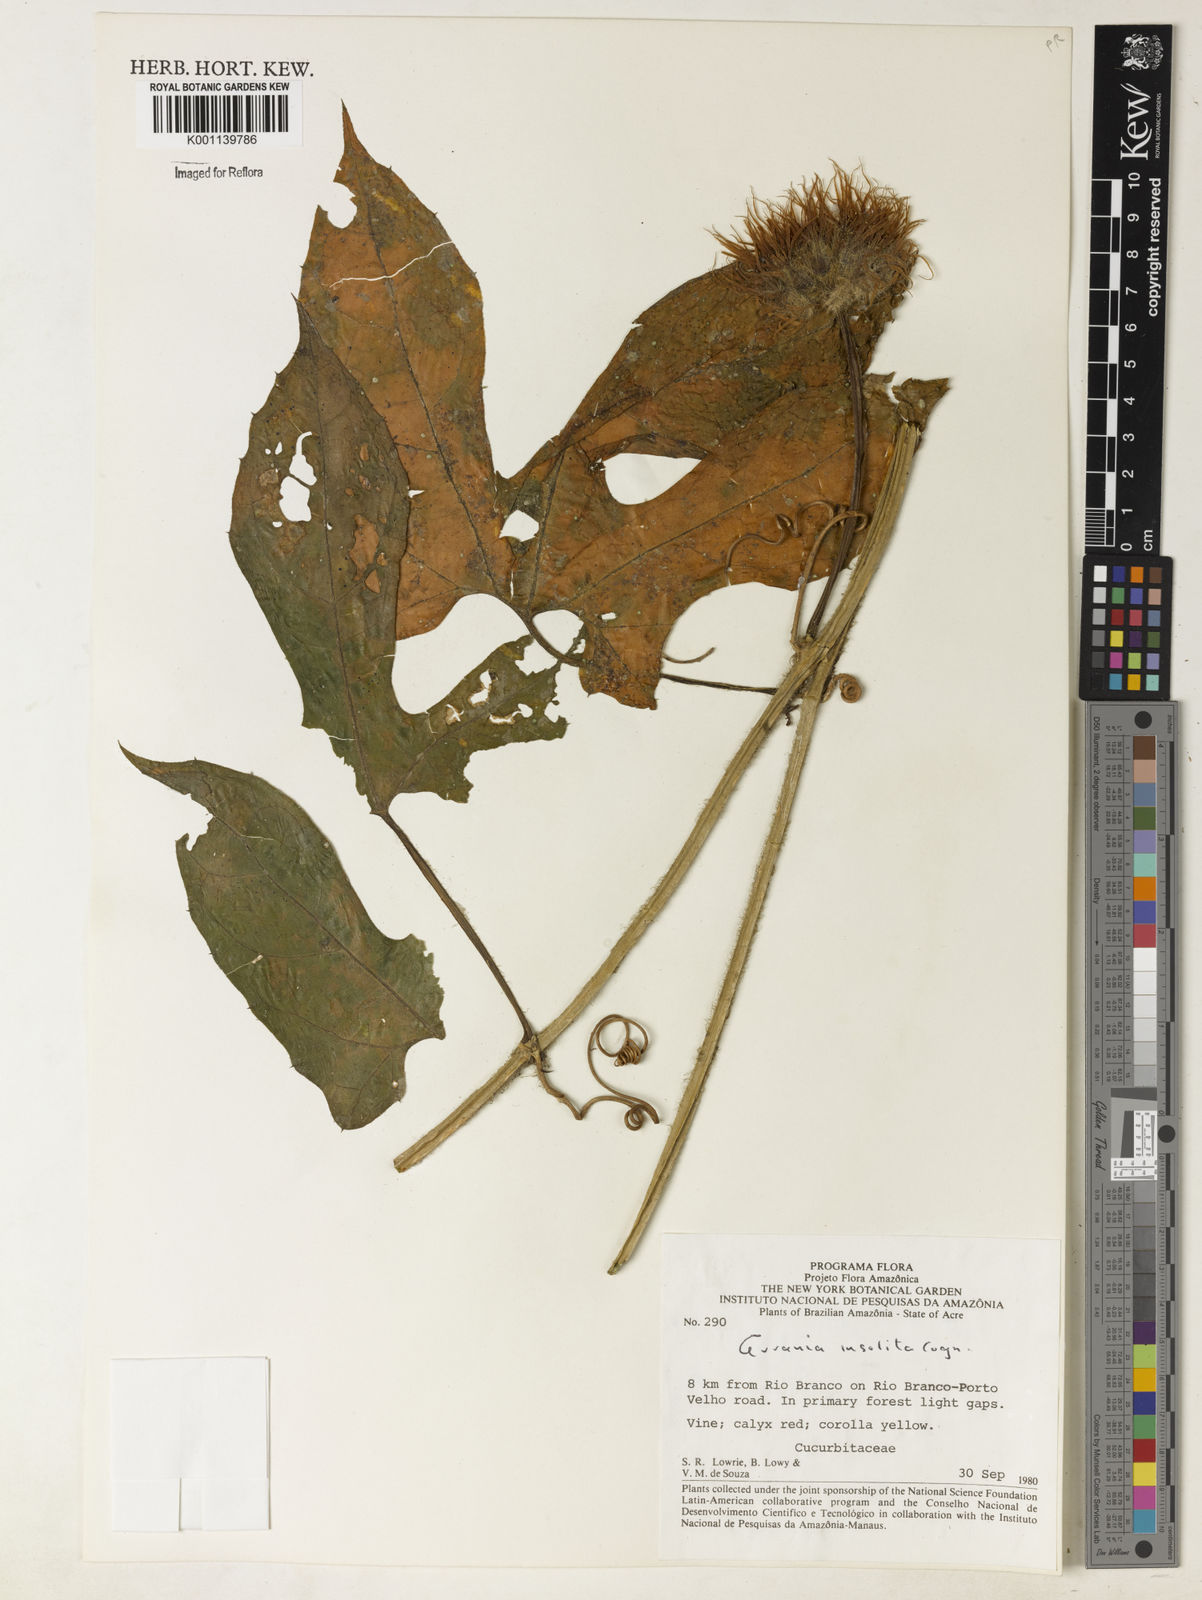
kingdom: Plantae
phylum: Tracheophyta
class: Magnoliopsida
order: Cucurbitales
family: Cucurbitaceae
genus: Gurania
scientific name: Gurania sinuata
